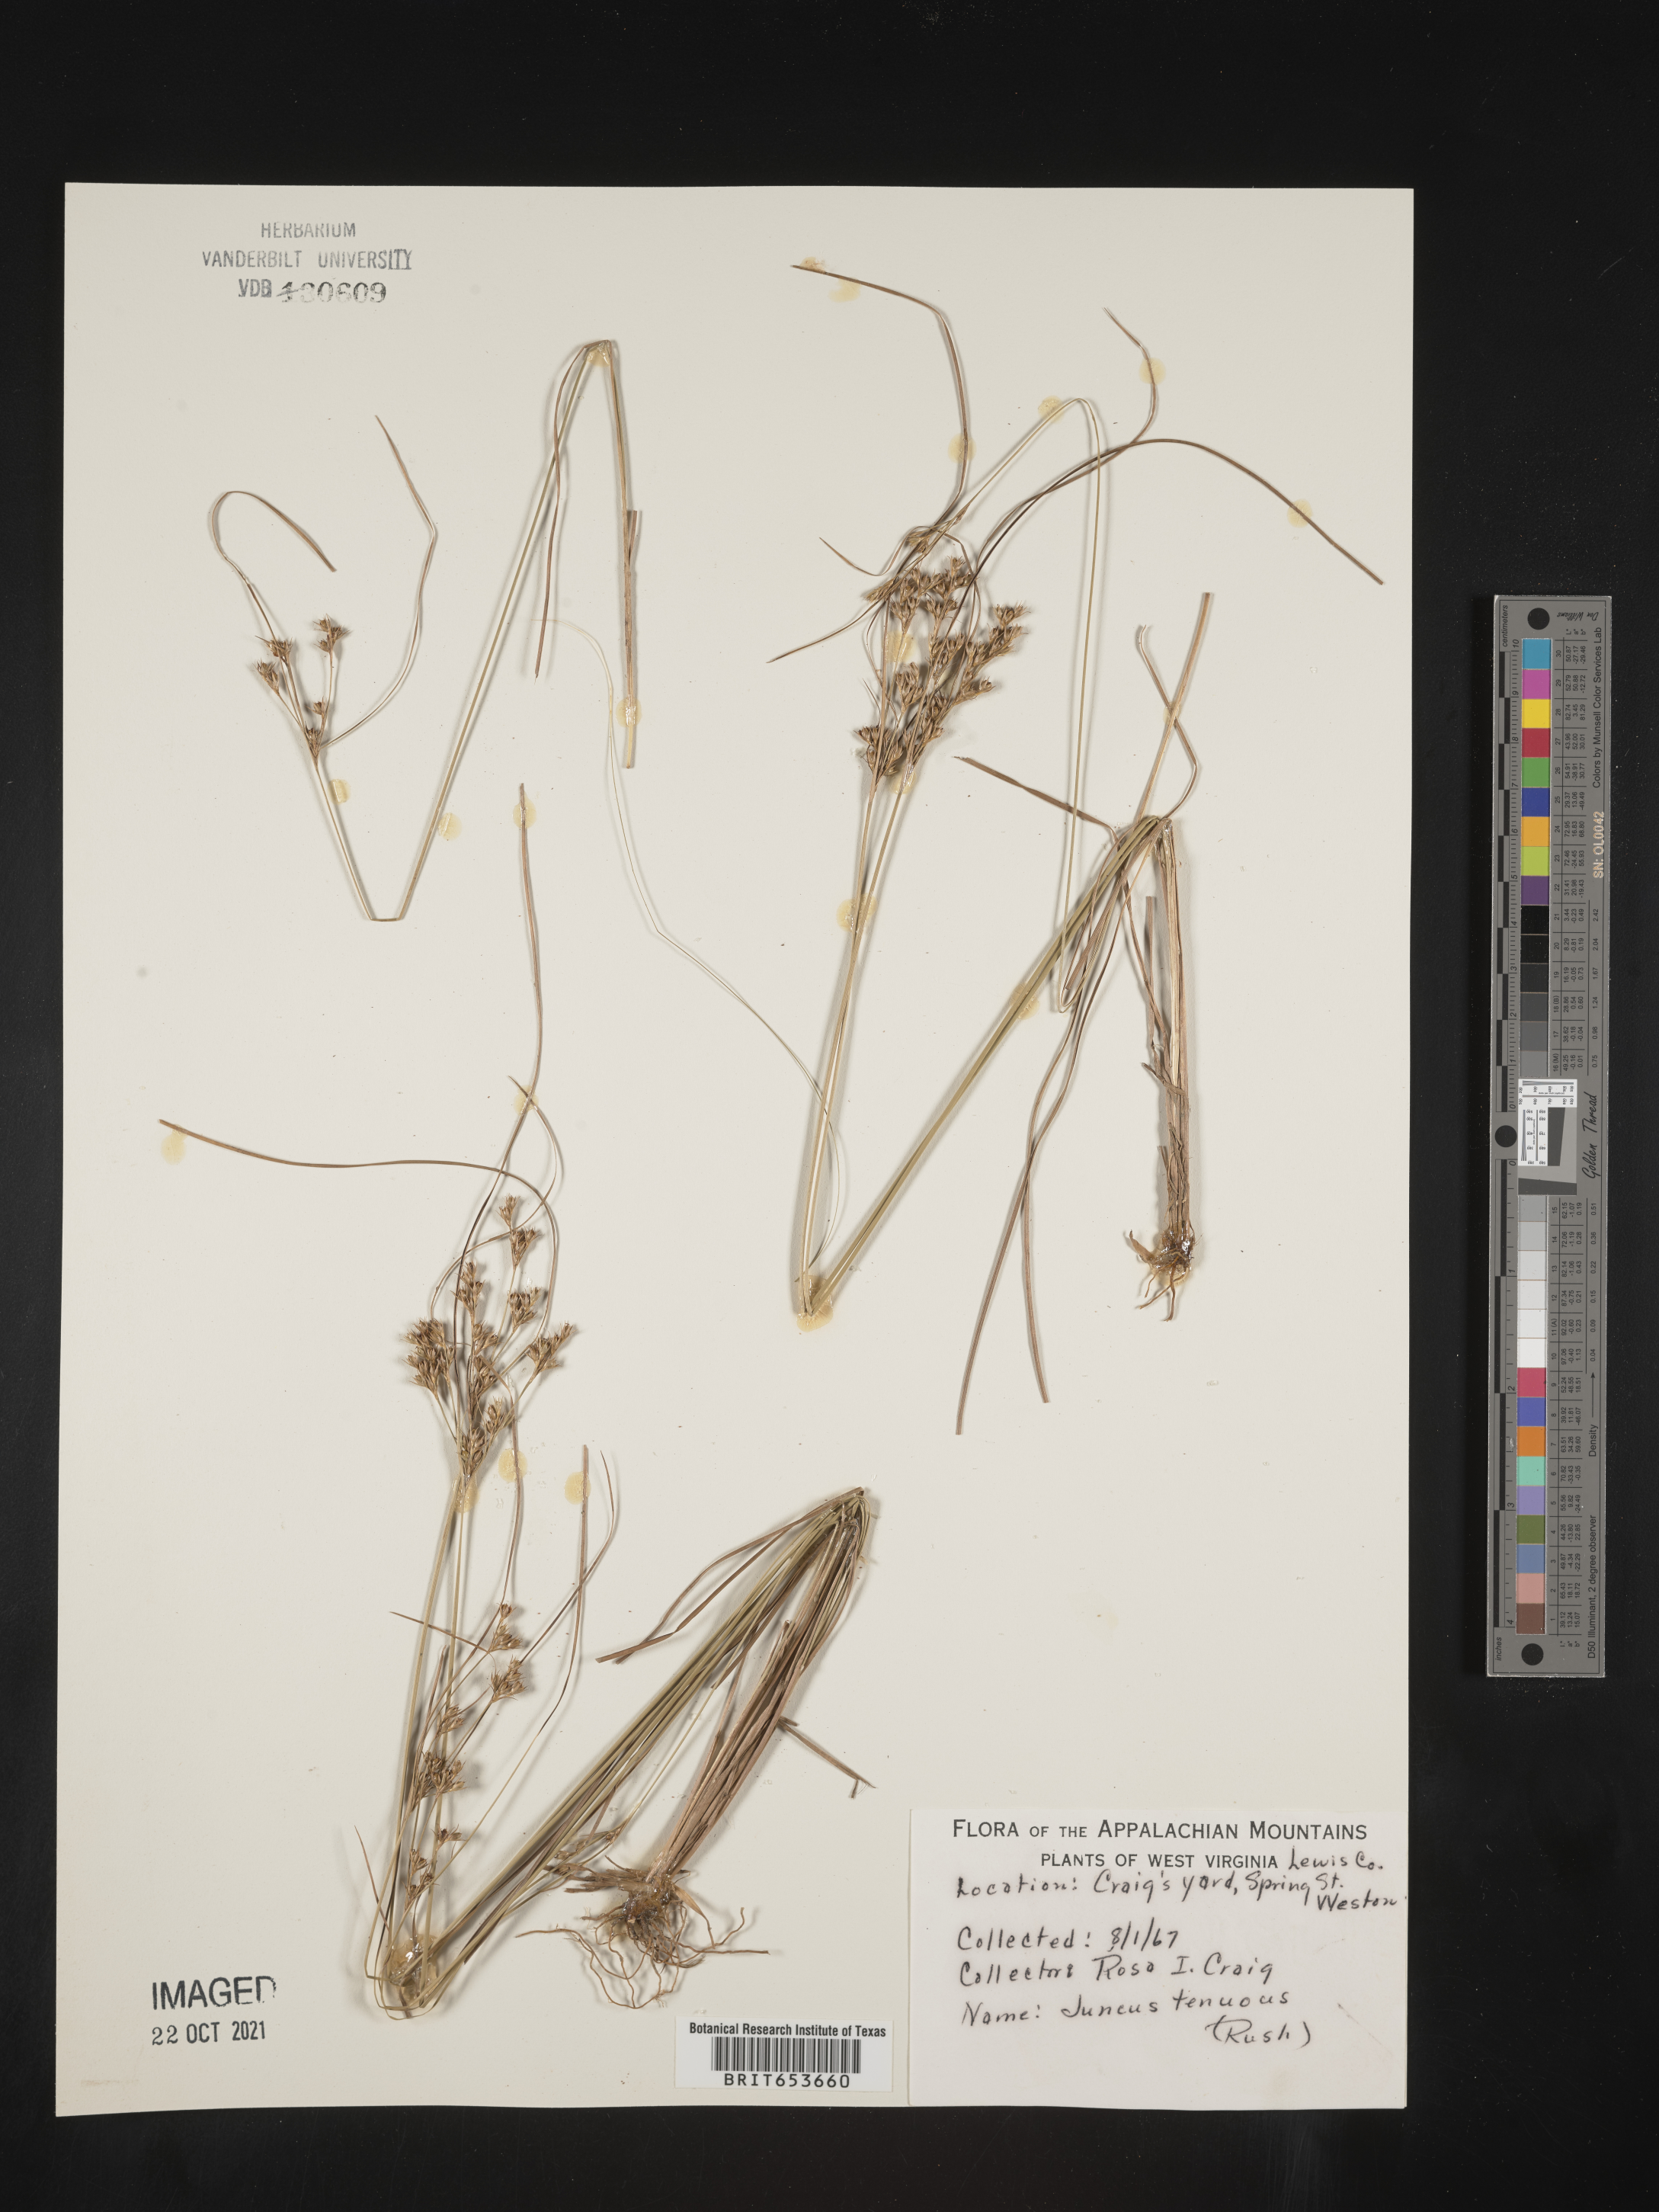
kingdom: Plantae
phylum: Tracheophyta
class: Liliopsida
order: Poales
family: Juncaceae
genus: Juncus
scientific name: Juncus tenuis
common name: Slender rush
